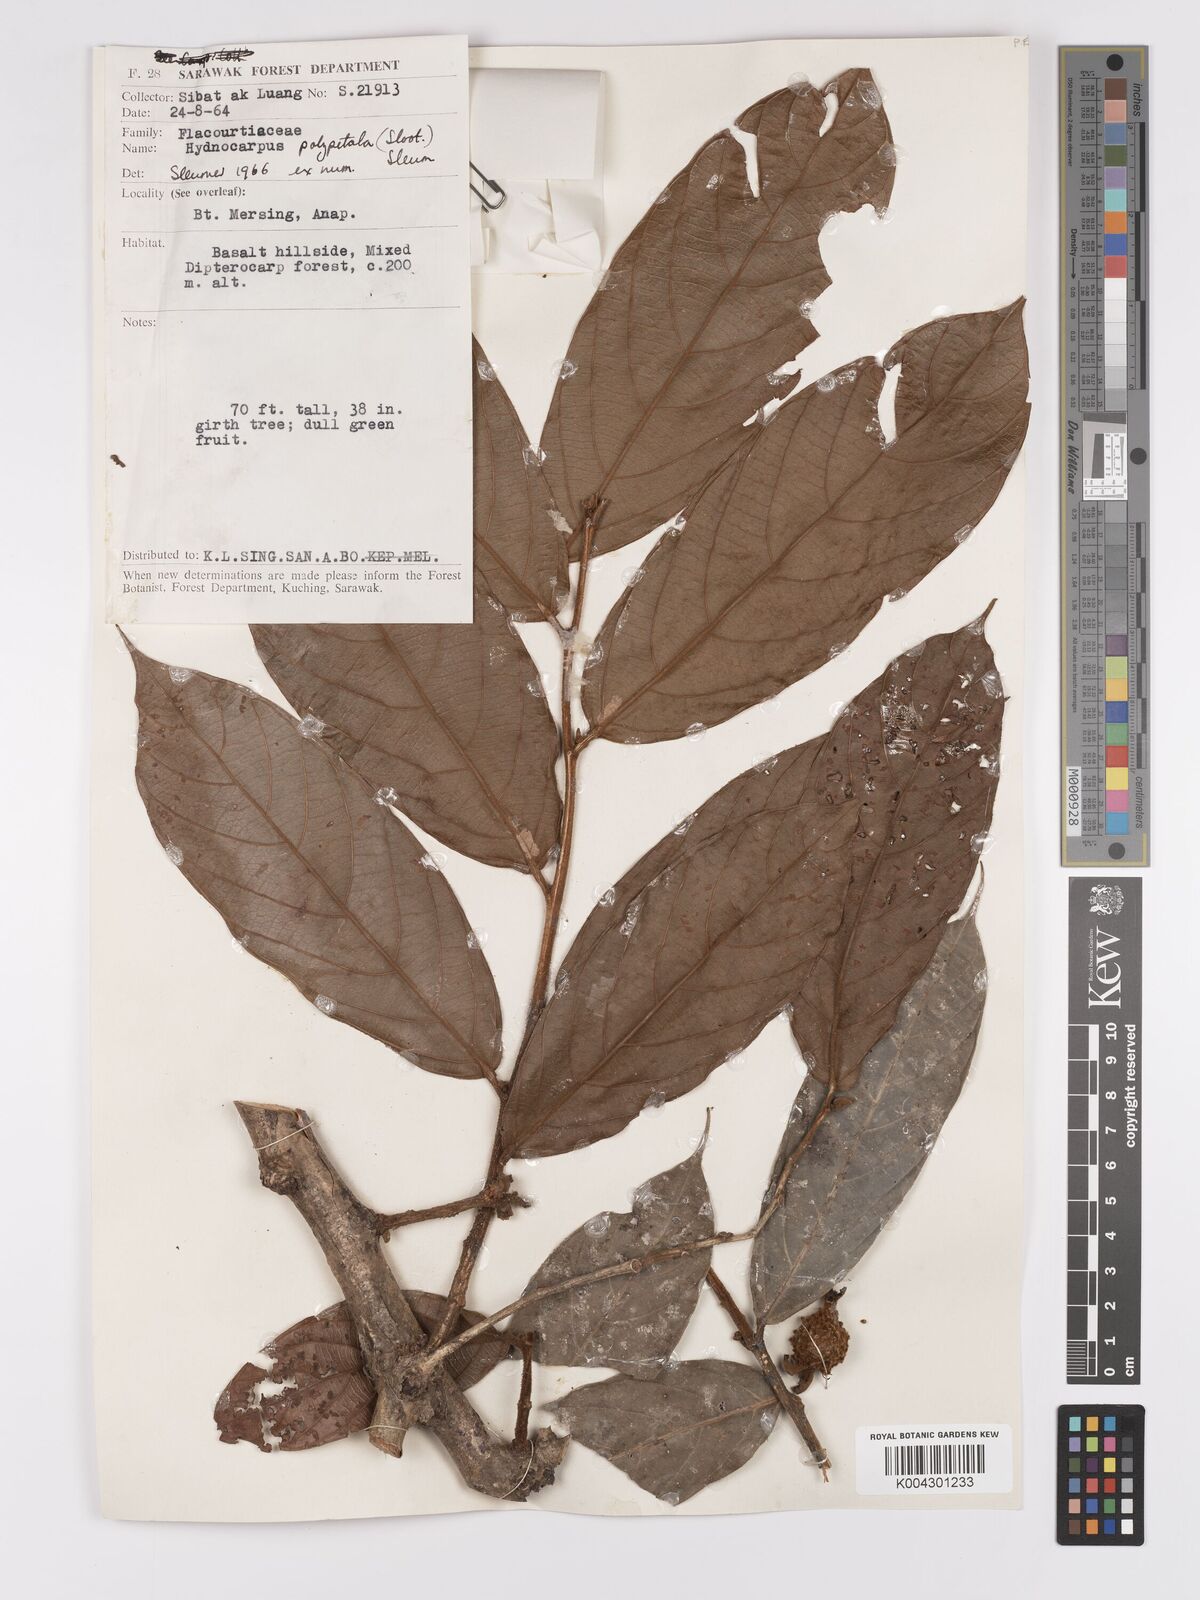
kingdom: Plantae
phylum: Tracheophyta
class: Magnoliopsida
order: Malpighiales
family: Achariaceae
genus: Hydnocarpus
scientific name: Hydnocarpus polypetalus
